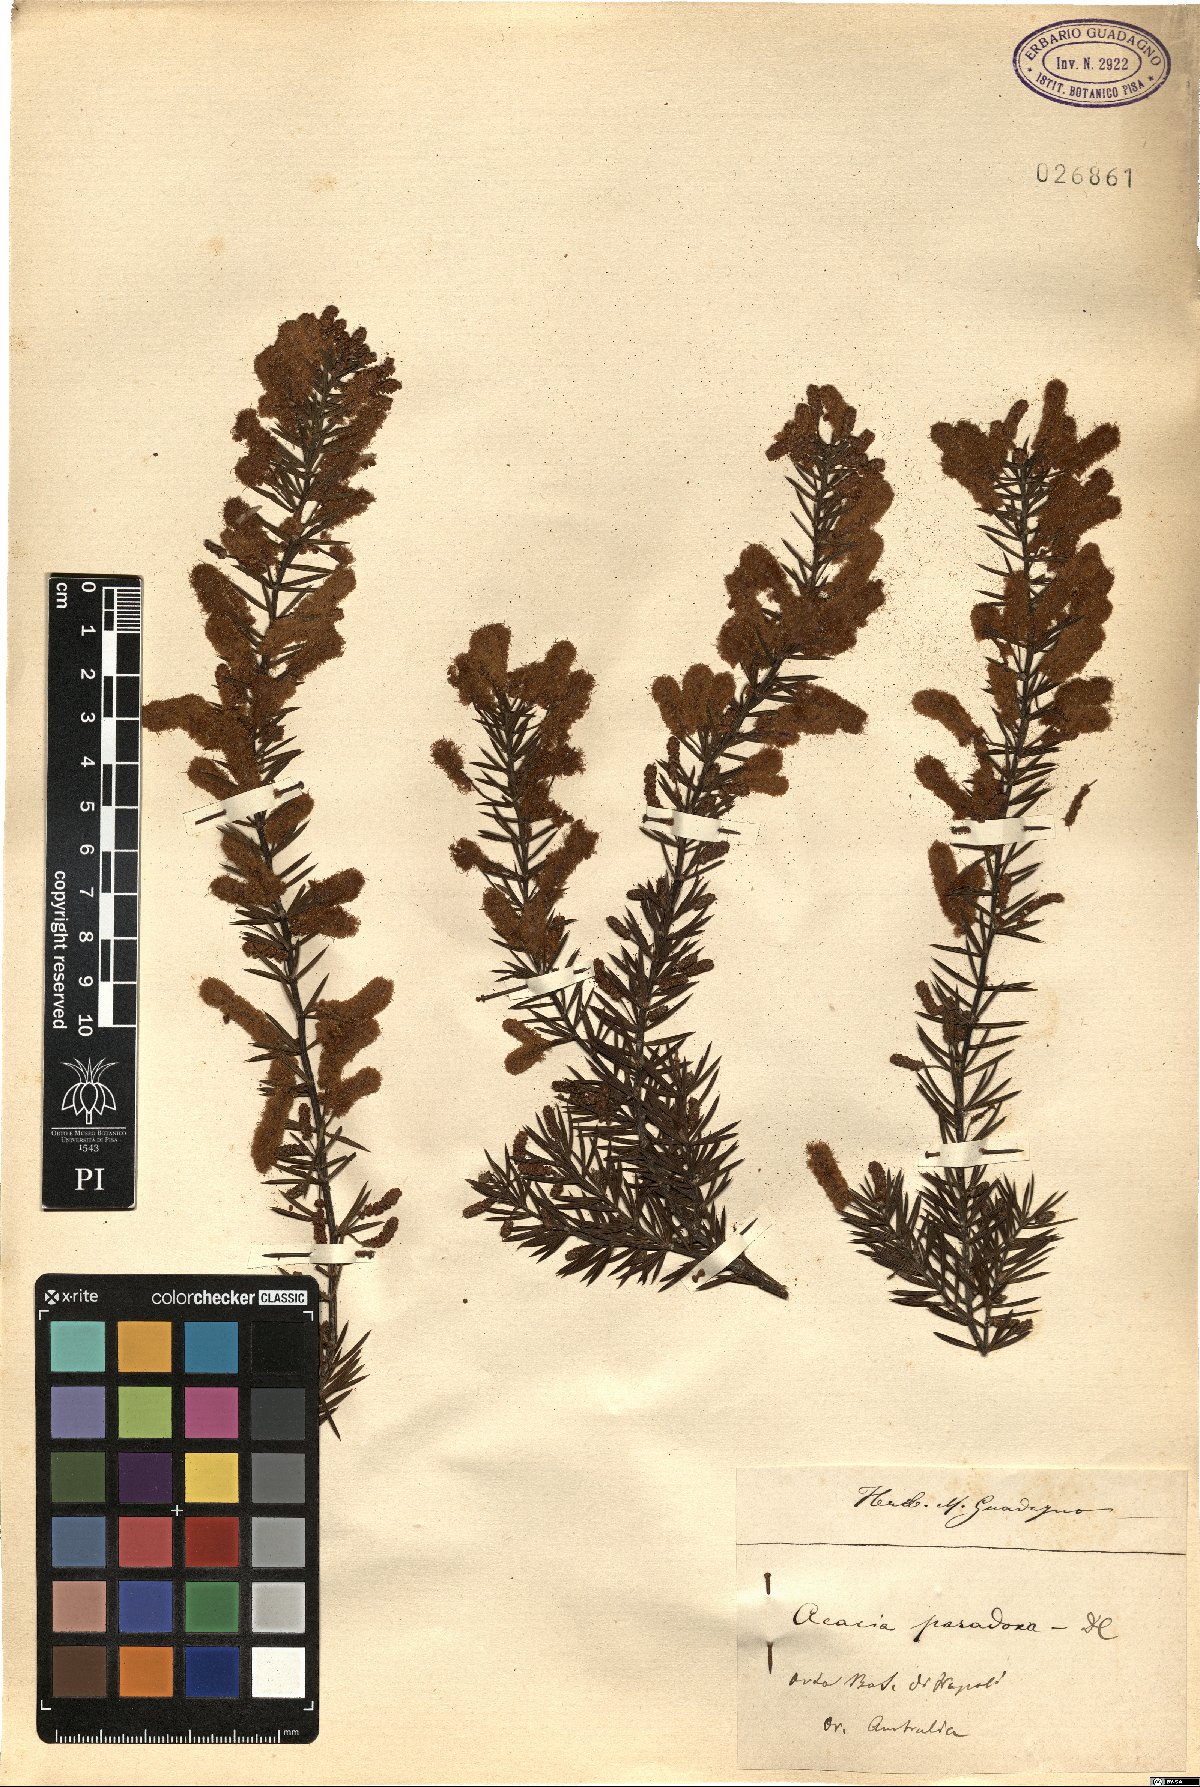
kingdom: Plantae
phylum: Tracheophyta
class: Magnoliopsida
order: Fabales
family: Fabaceae
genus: Acacia
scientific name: Acacia paradoxa
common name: Paradox acacia
